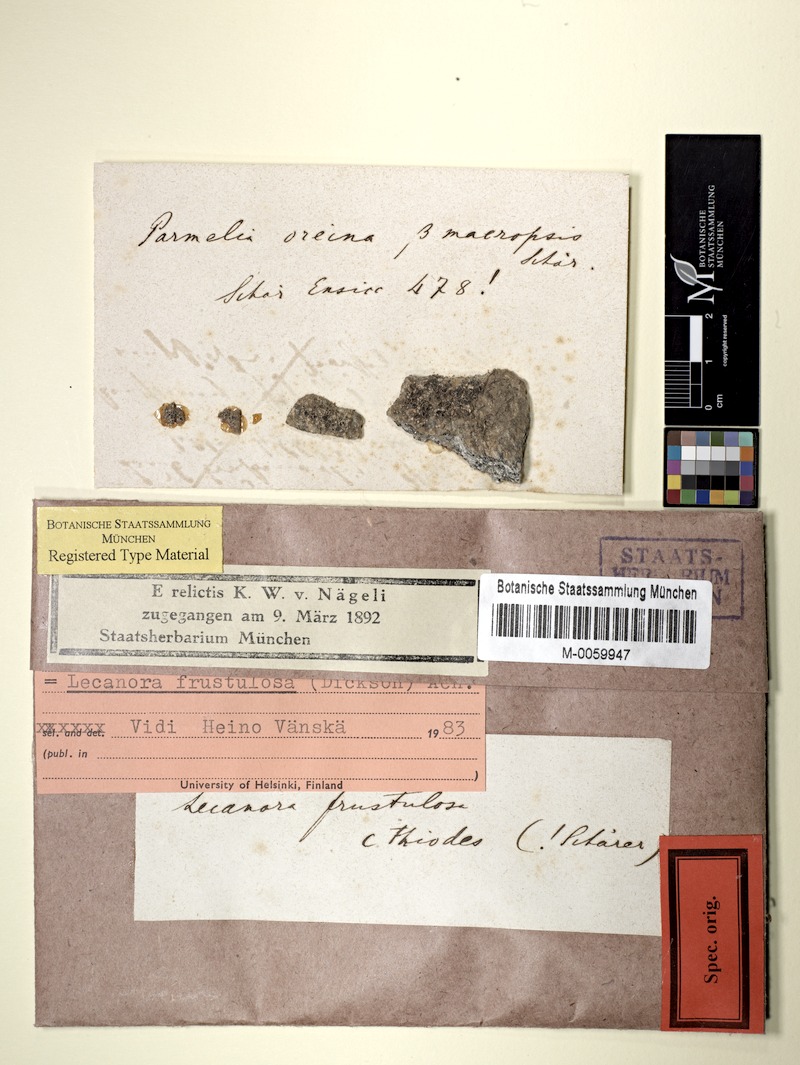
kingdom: Fungi
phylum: Ascomycota
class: Lecanoromycetes
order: Lecanorales
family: Lecanoraceae
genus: Lecanora
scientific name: Lecanora frustulosa
